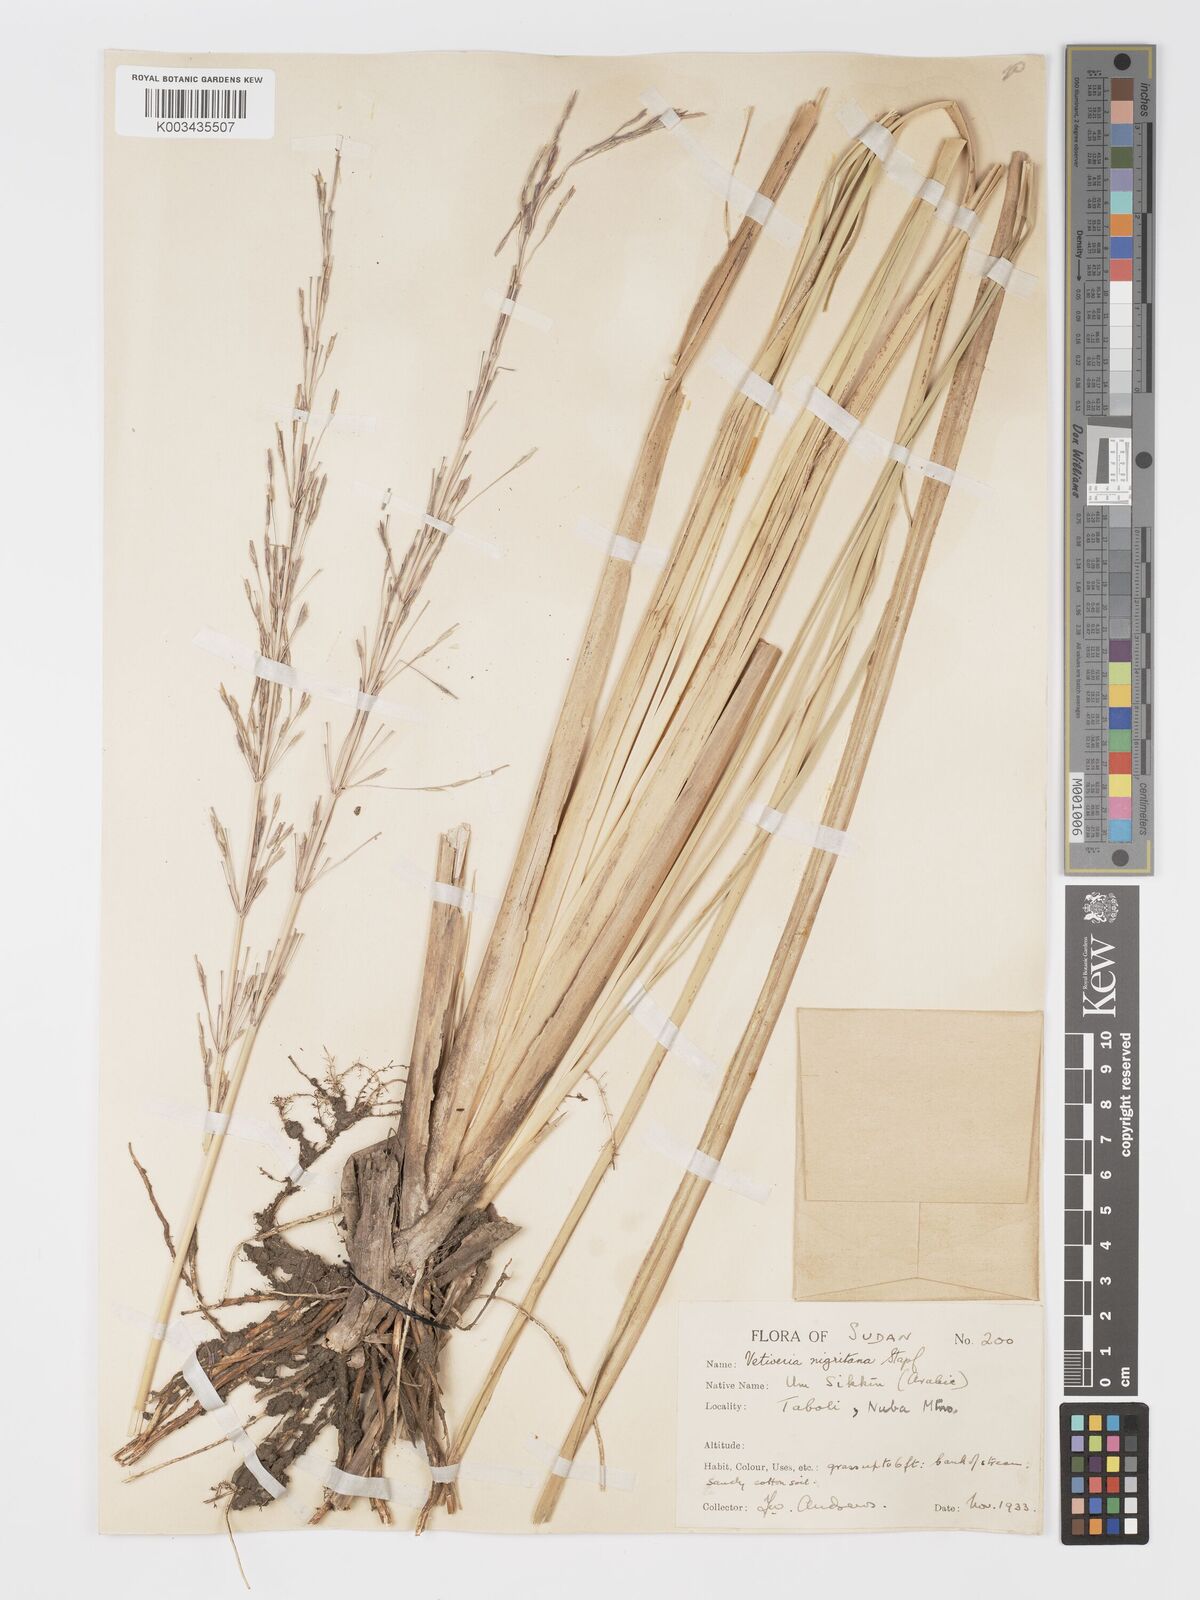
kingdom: Plantae
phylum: Tracheophyta
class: Liliopsida
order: Poales
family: Poaceae
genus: Chrysopogon
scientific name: Chrysopogon nigritanus
